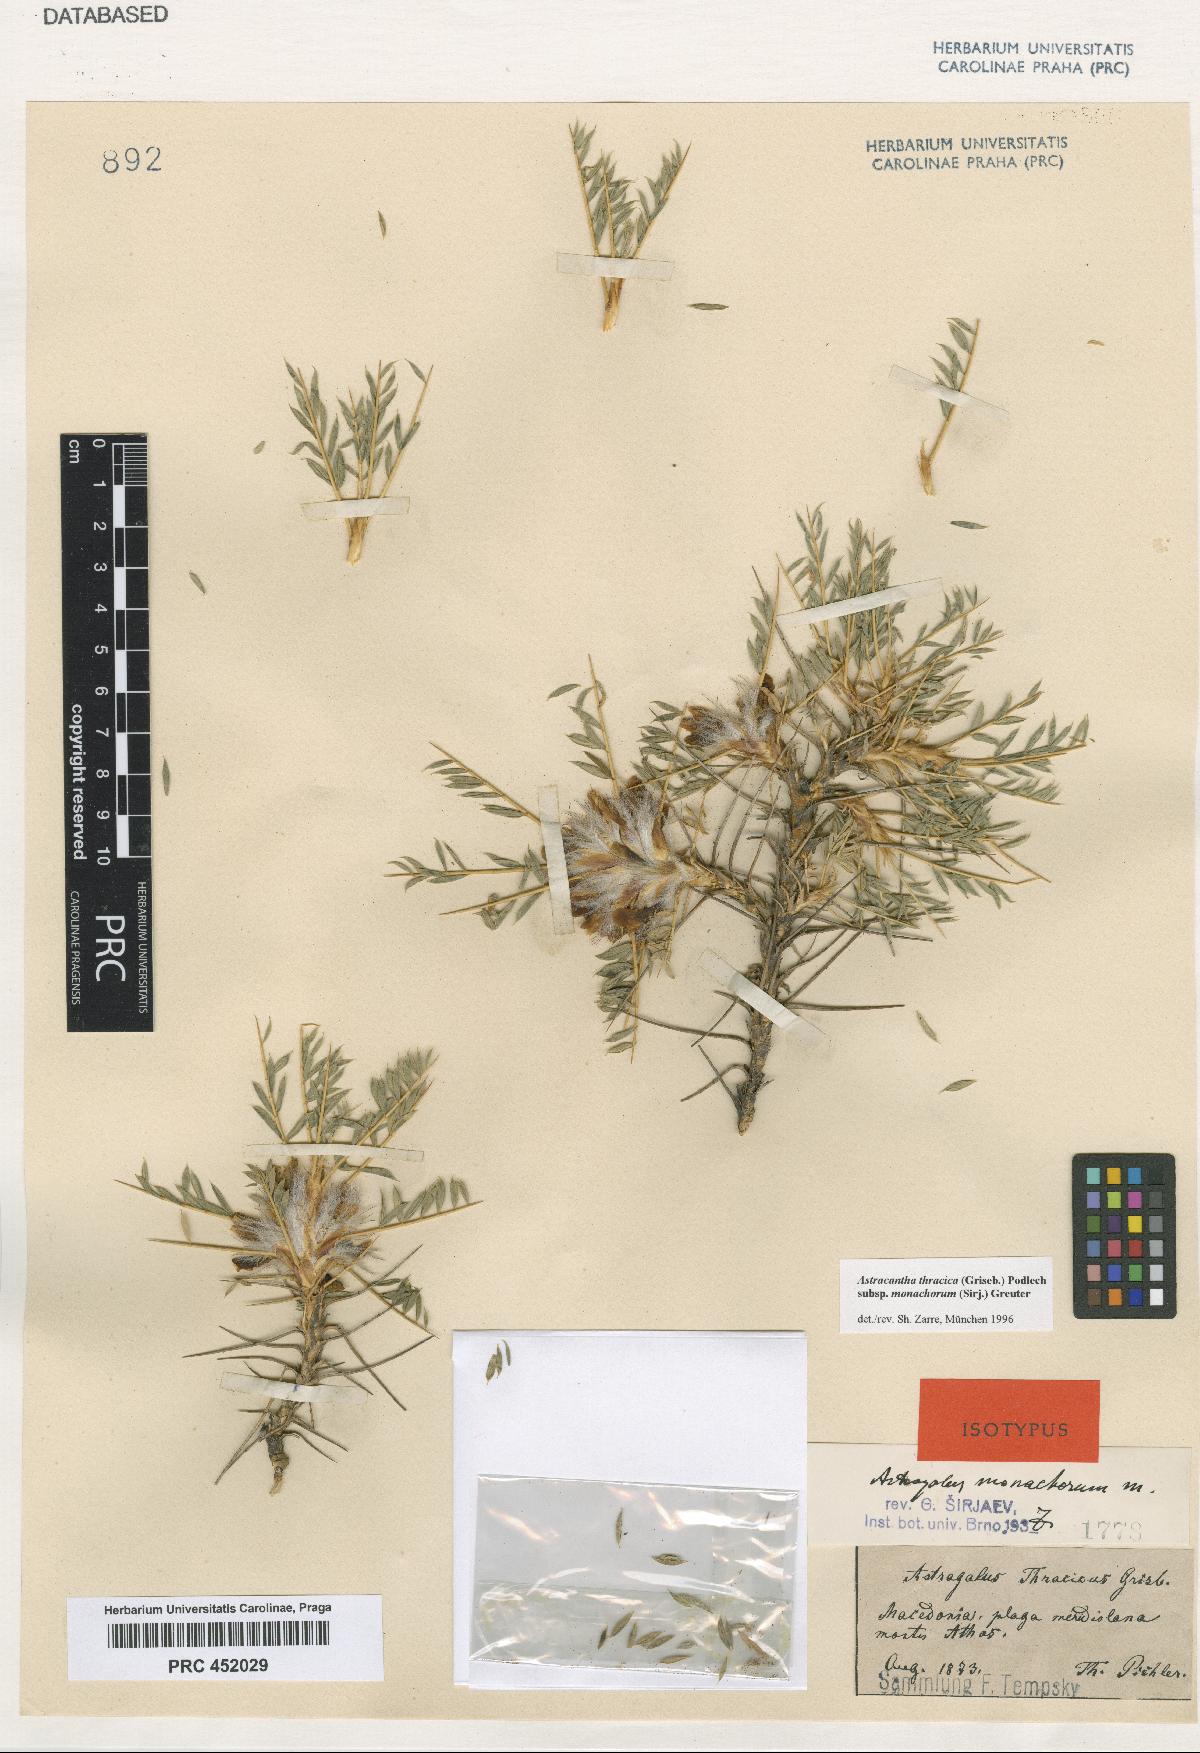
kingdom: Plantae
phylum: Tracheophyta
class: Magnoliopsida
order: Fabales
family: Fabaceae
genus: Astragalus
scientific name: Astragalus thracicus
